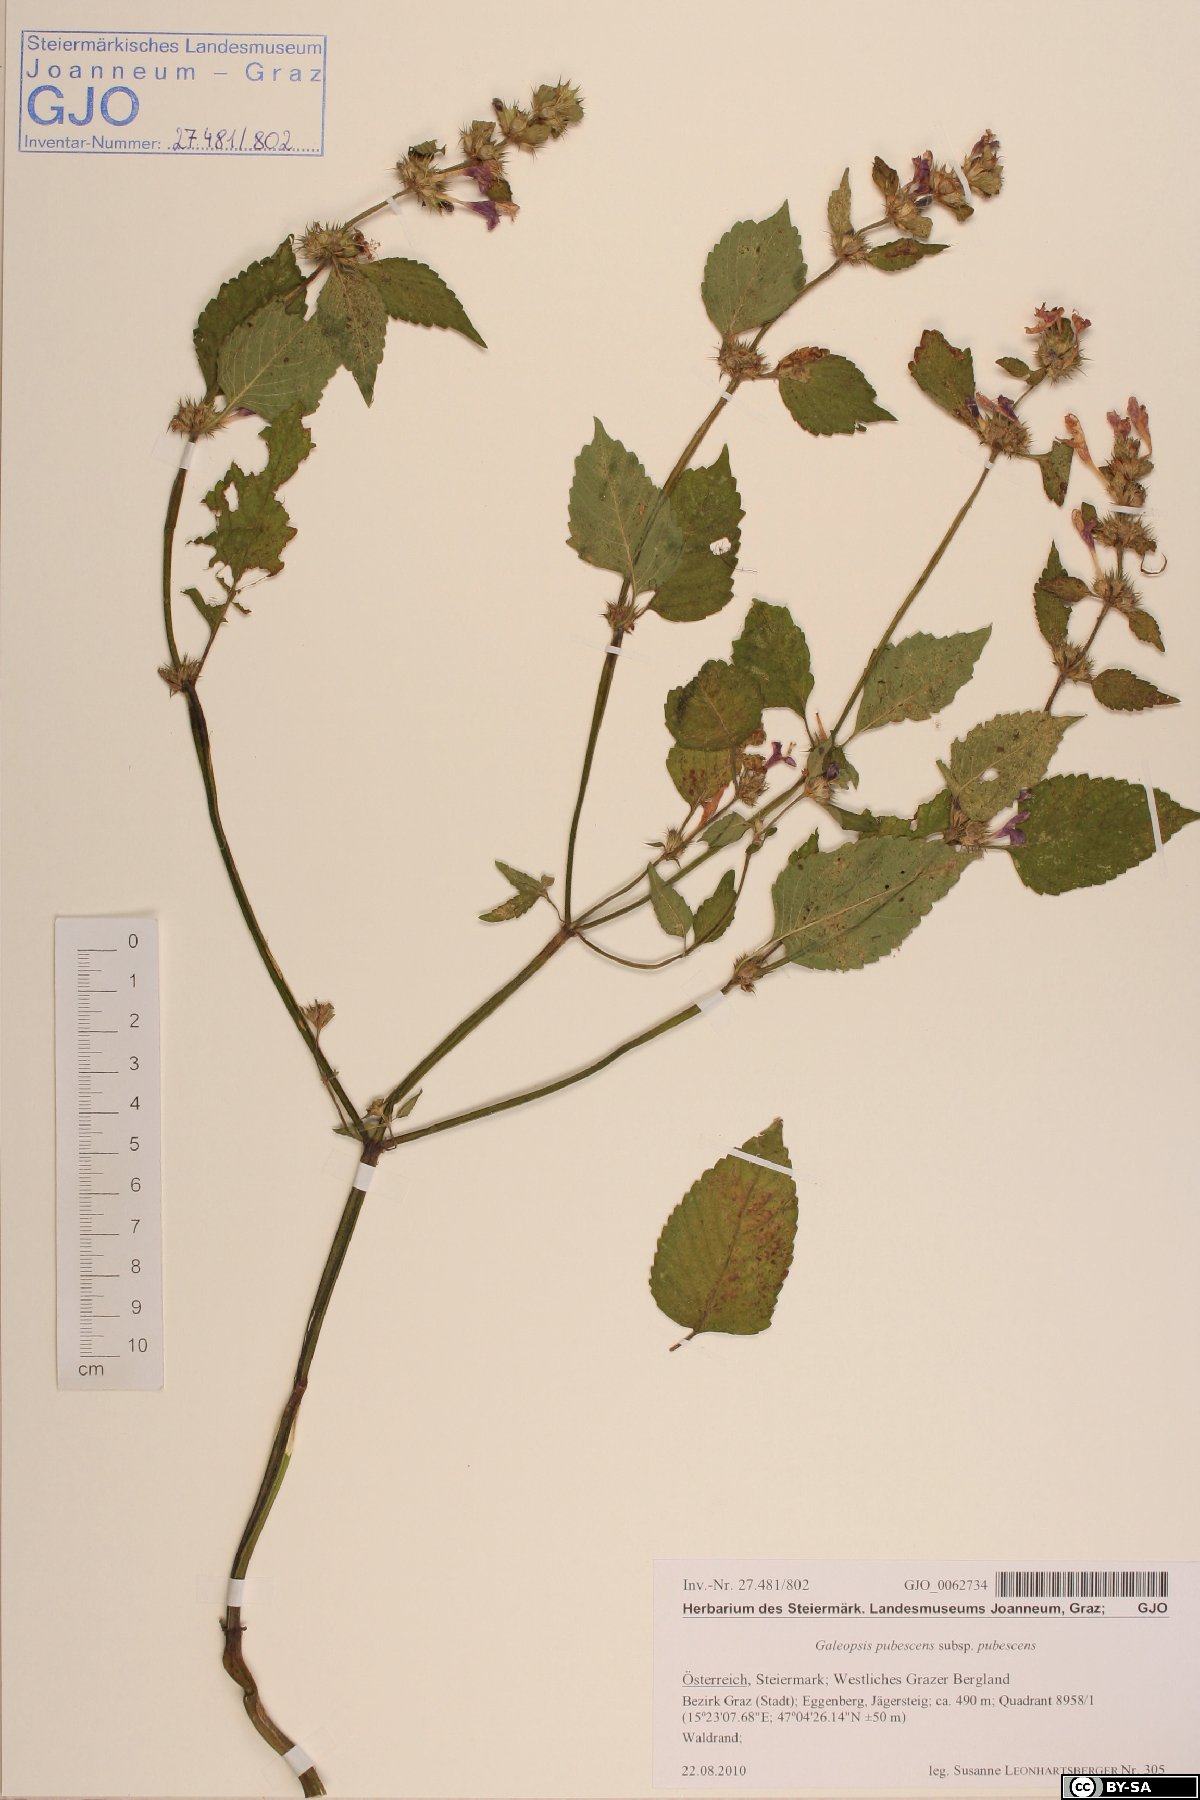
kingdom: Plantae
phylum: Tracheophyta
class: Magnoliopsida
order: Lamiales
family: Lamiaceae
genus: Galeopsis
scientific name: Galeopsis pubescens
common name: Downy hemp-nettle
